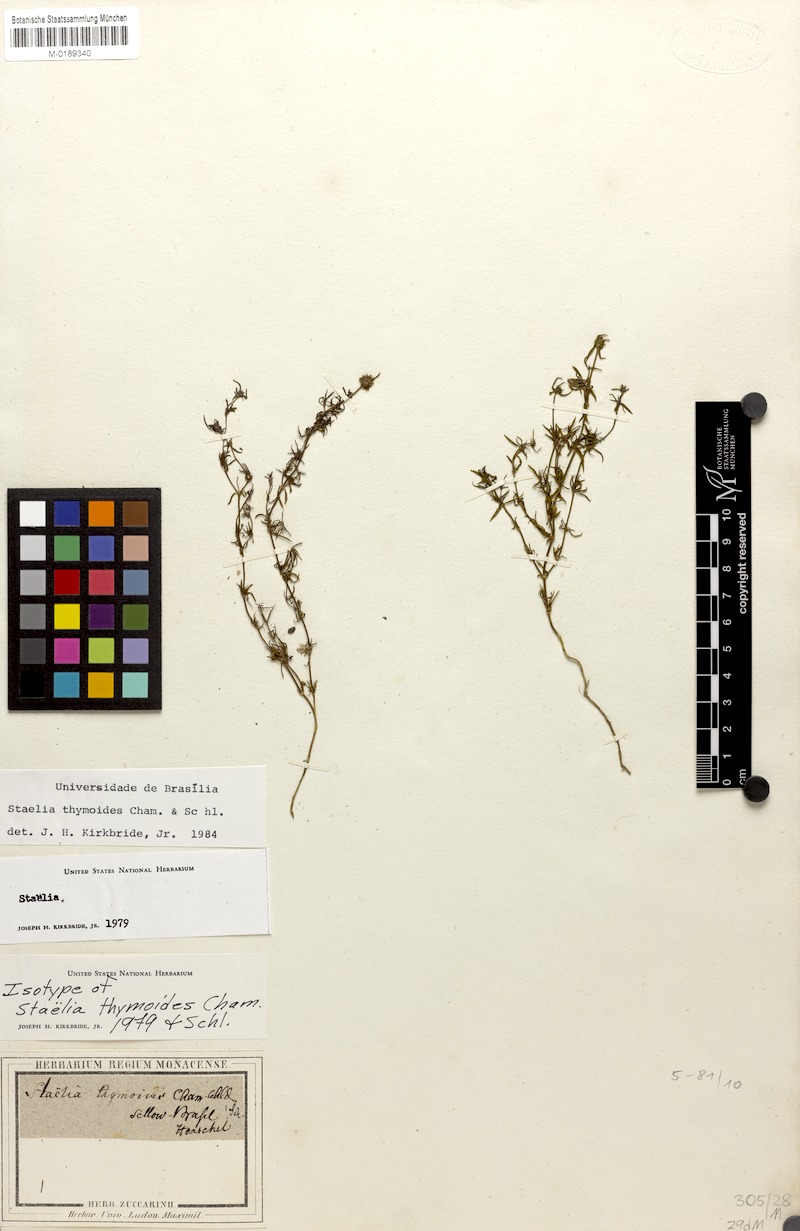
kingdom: Plantae
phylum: Tracheophyta
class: Magnoliopsida
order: Gentianales
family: Rubiaceae
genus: Staelia
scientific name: Staelia thymoides
